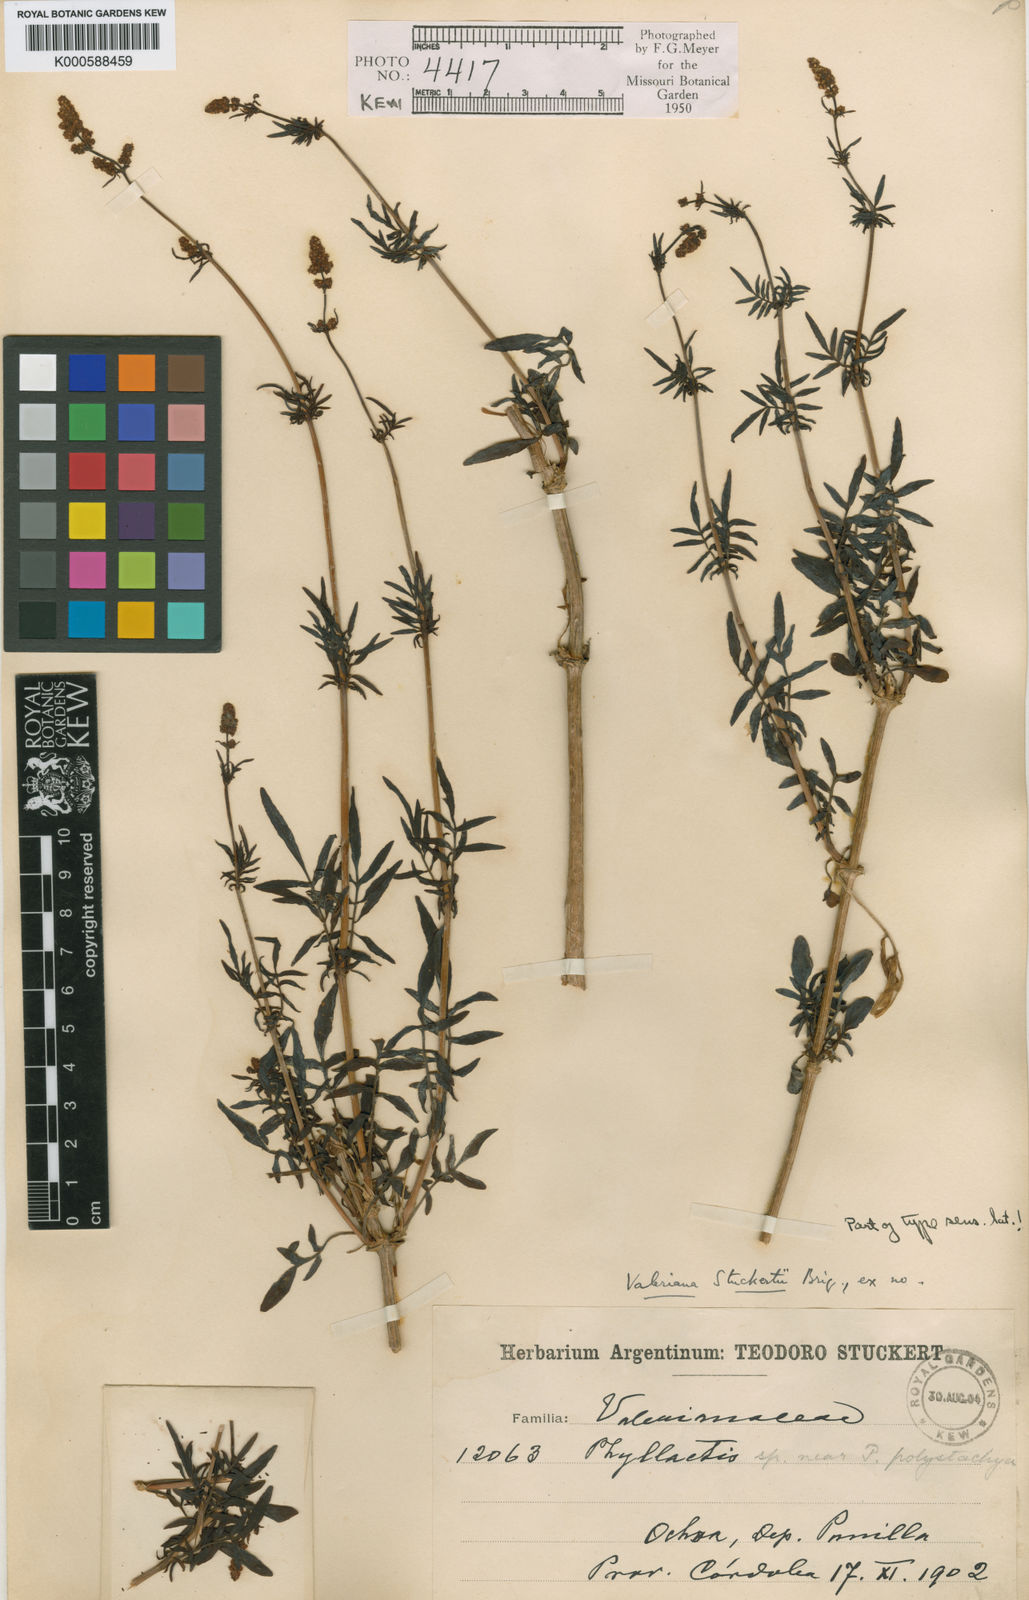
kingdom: Plantae
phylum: Tracheophyta
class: Magnoliopsida
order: Dipsacales
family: Caprifoliaceae
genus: Valeriana
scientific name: Valeriana stuckertii
